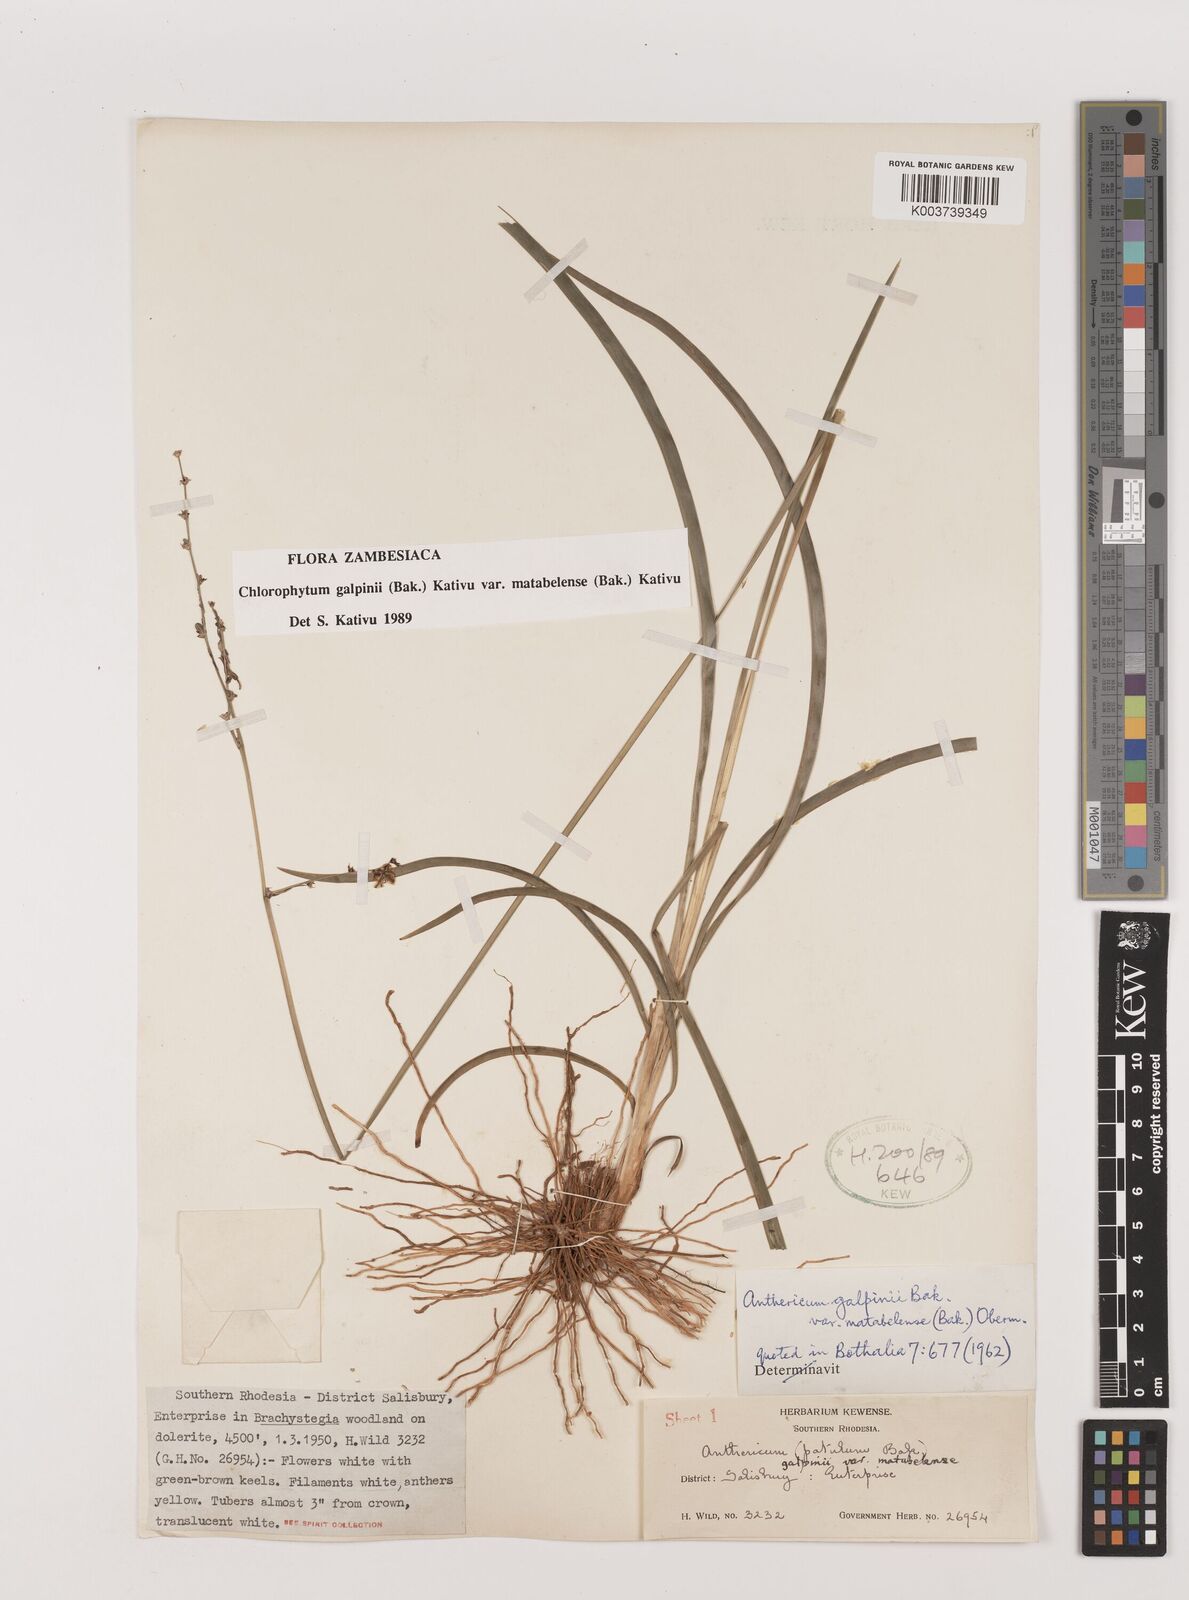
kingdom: Plantae
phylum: Tracheophyta
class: Liliopsida
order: Asparagales
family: Asparagaceae
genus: Chlorophytum
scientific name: Chlorophytum galpinii
